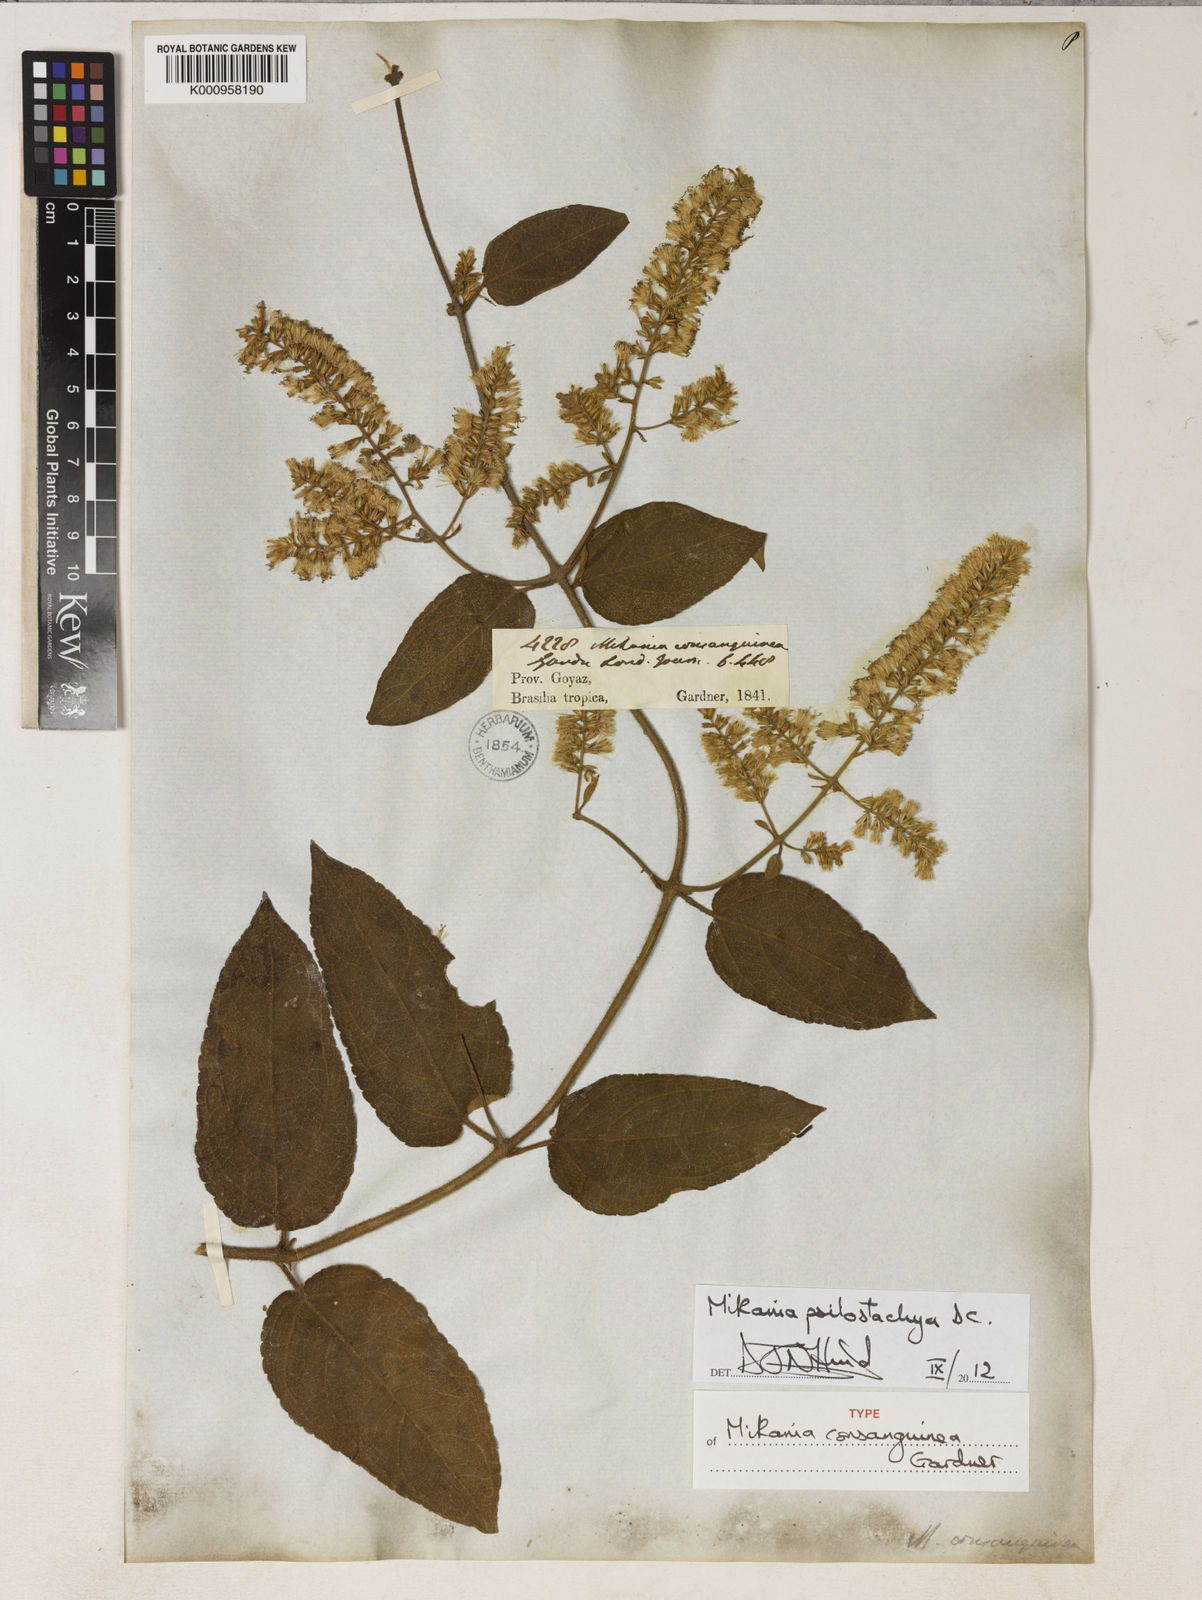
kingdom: Plantae
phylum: Tracheophyta
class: Magnoliopsida
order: Asterales
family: Asteraceae
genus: Mikania
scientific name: Mikania psilostachya
